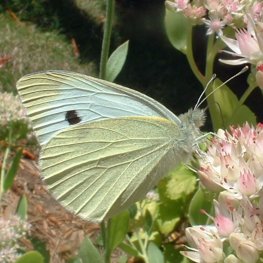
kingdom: Animalia
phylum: Arthropoda
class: Insecta
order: Lepidoptera
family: Pieridae
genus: Pieris
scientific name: Pieris rapae
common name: Cabbage White
